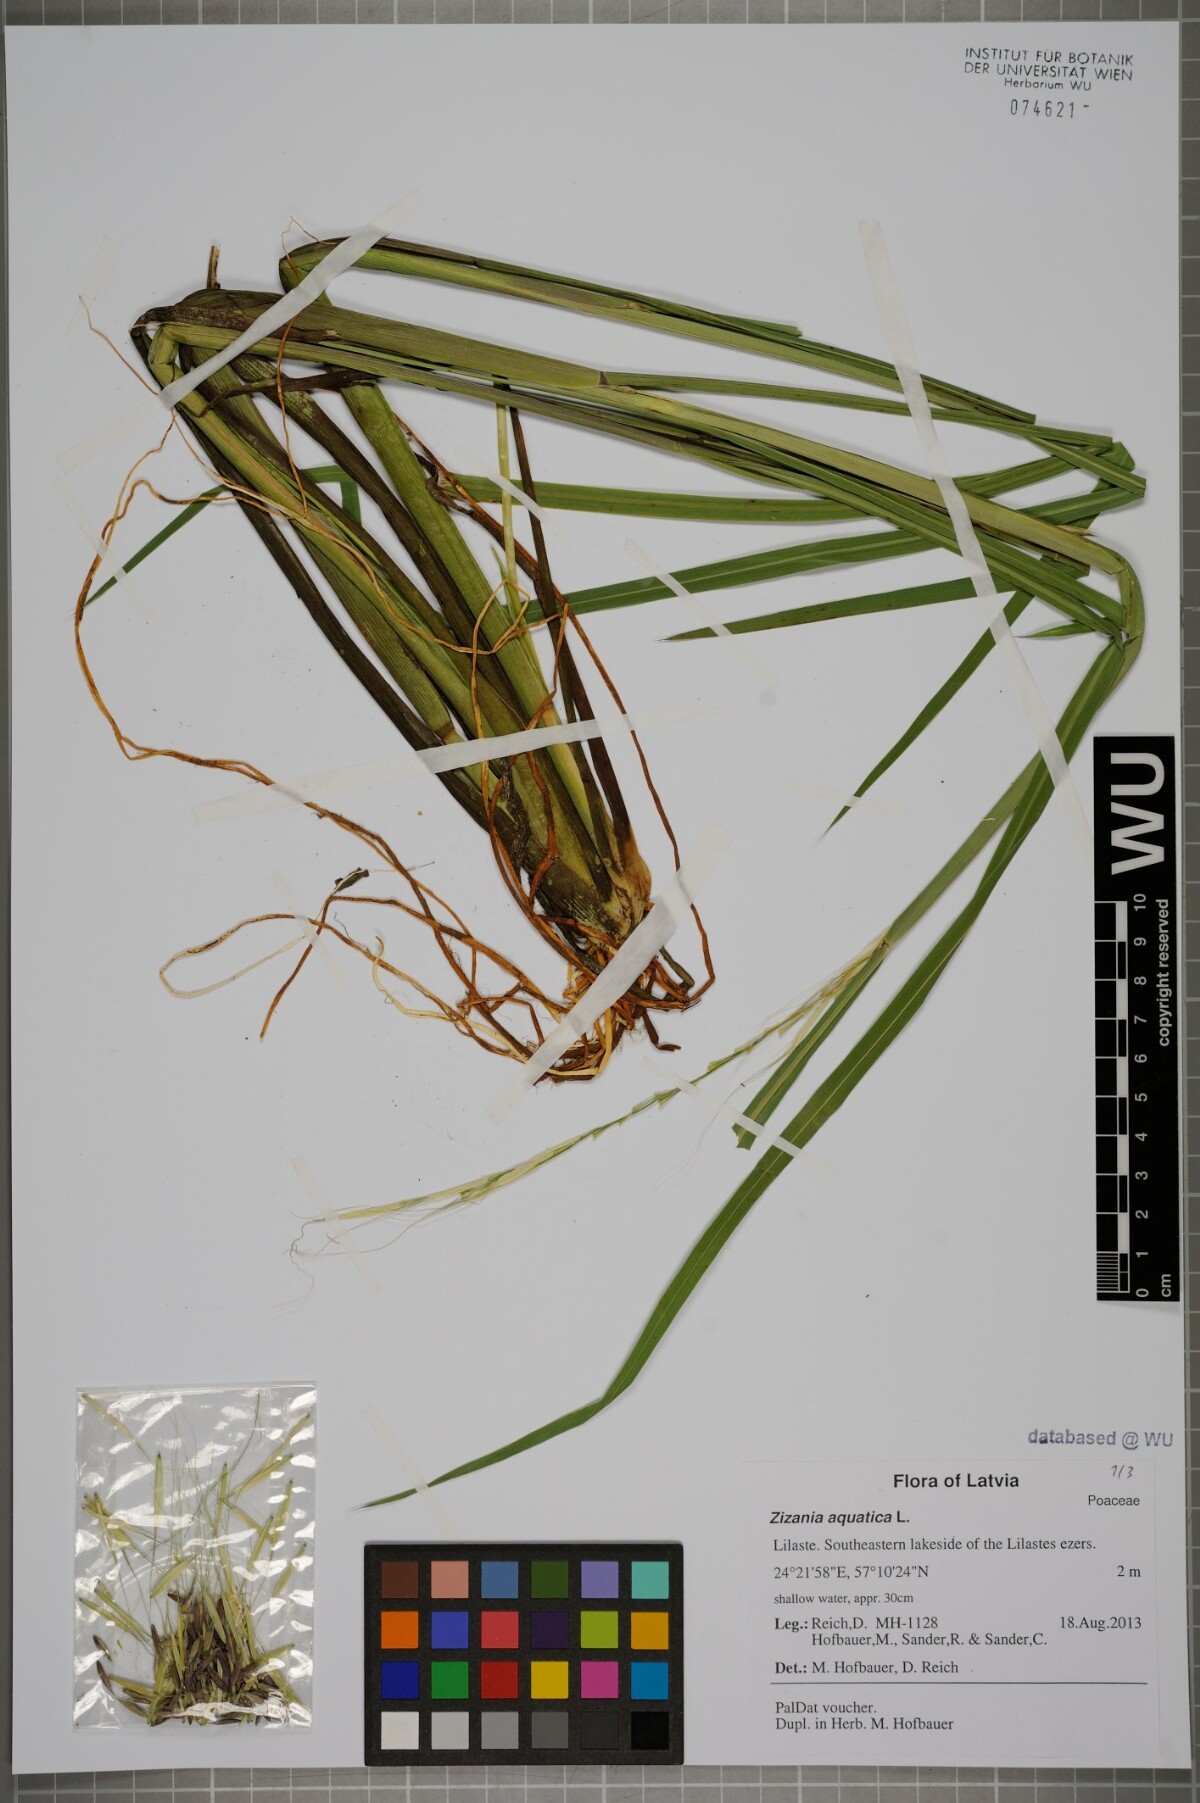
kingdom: Plantae
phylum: Tracheophyta
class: Liliopsida
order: Poales
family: Poaceae
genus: Zizania
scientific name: Zizania aquatica
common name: Annual wildrice
